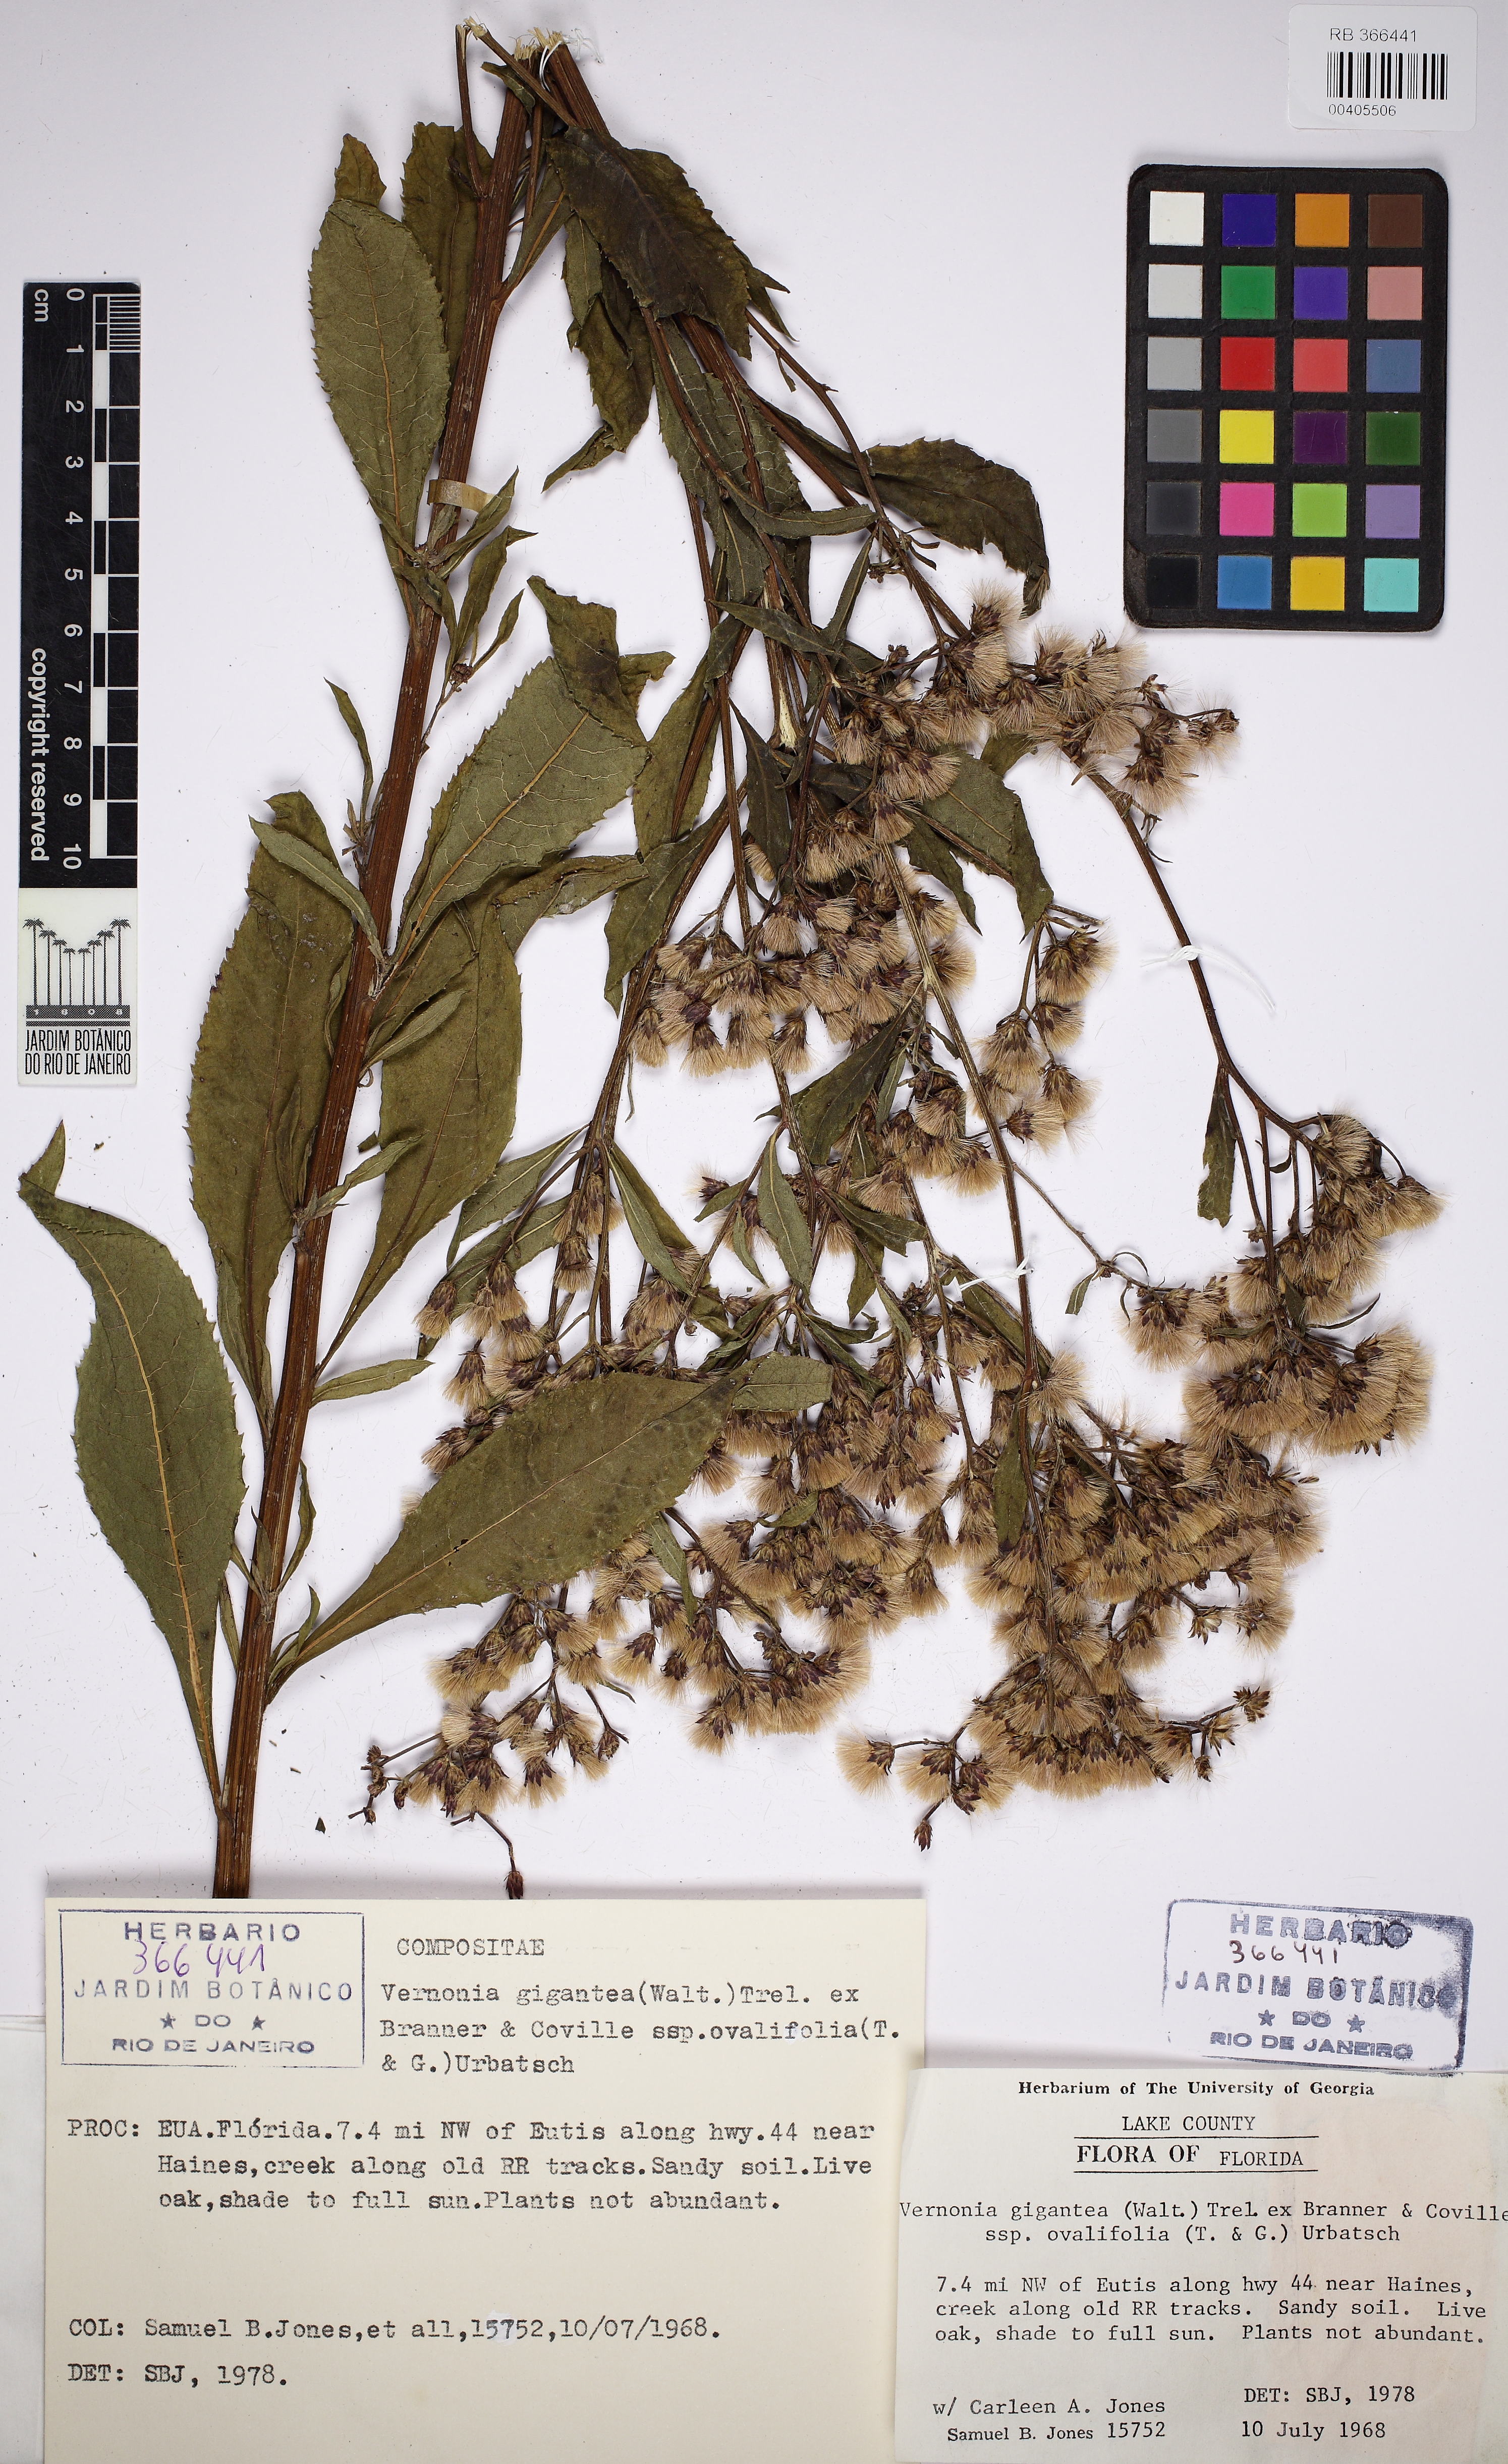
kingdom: Plantae
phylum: Tracheophyta
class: Magnoliopsida
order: Asterales
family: Asteraceae
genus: Vernonia
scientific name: Vernonia gigantea
